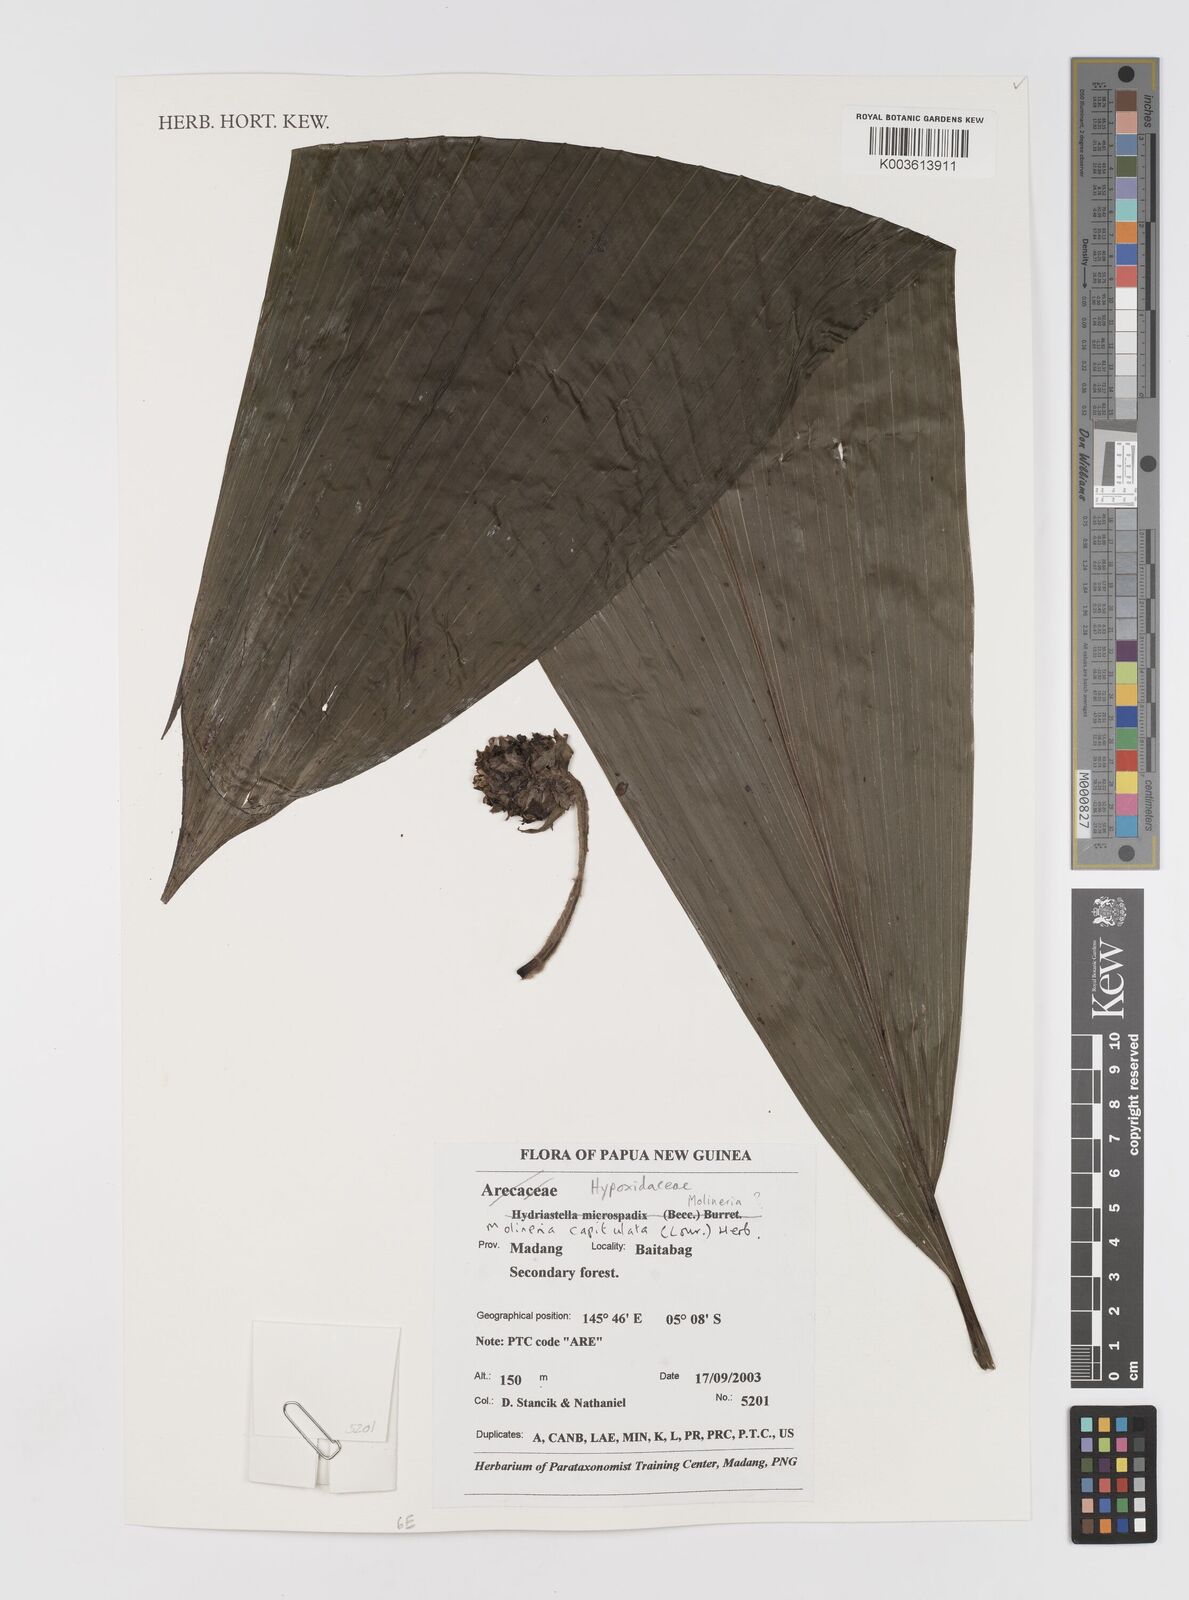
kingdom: Plantae
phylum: Tracheophyta
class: Liliopsida
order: Asparagales
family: Hypoxidaceae
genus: Curculigo
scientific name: Curculigo capitulata
